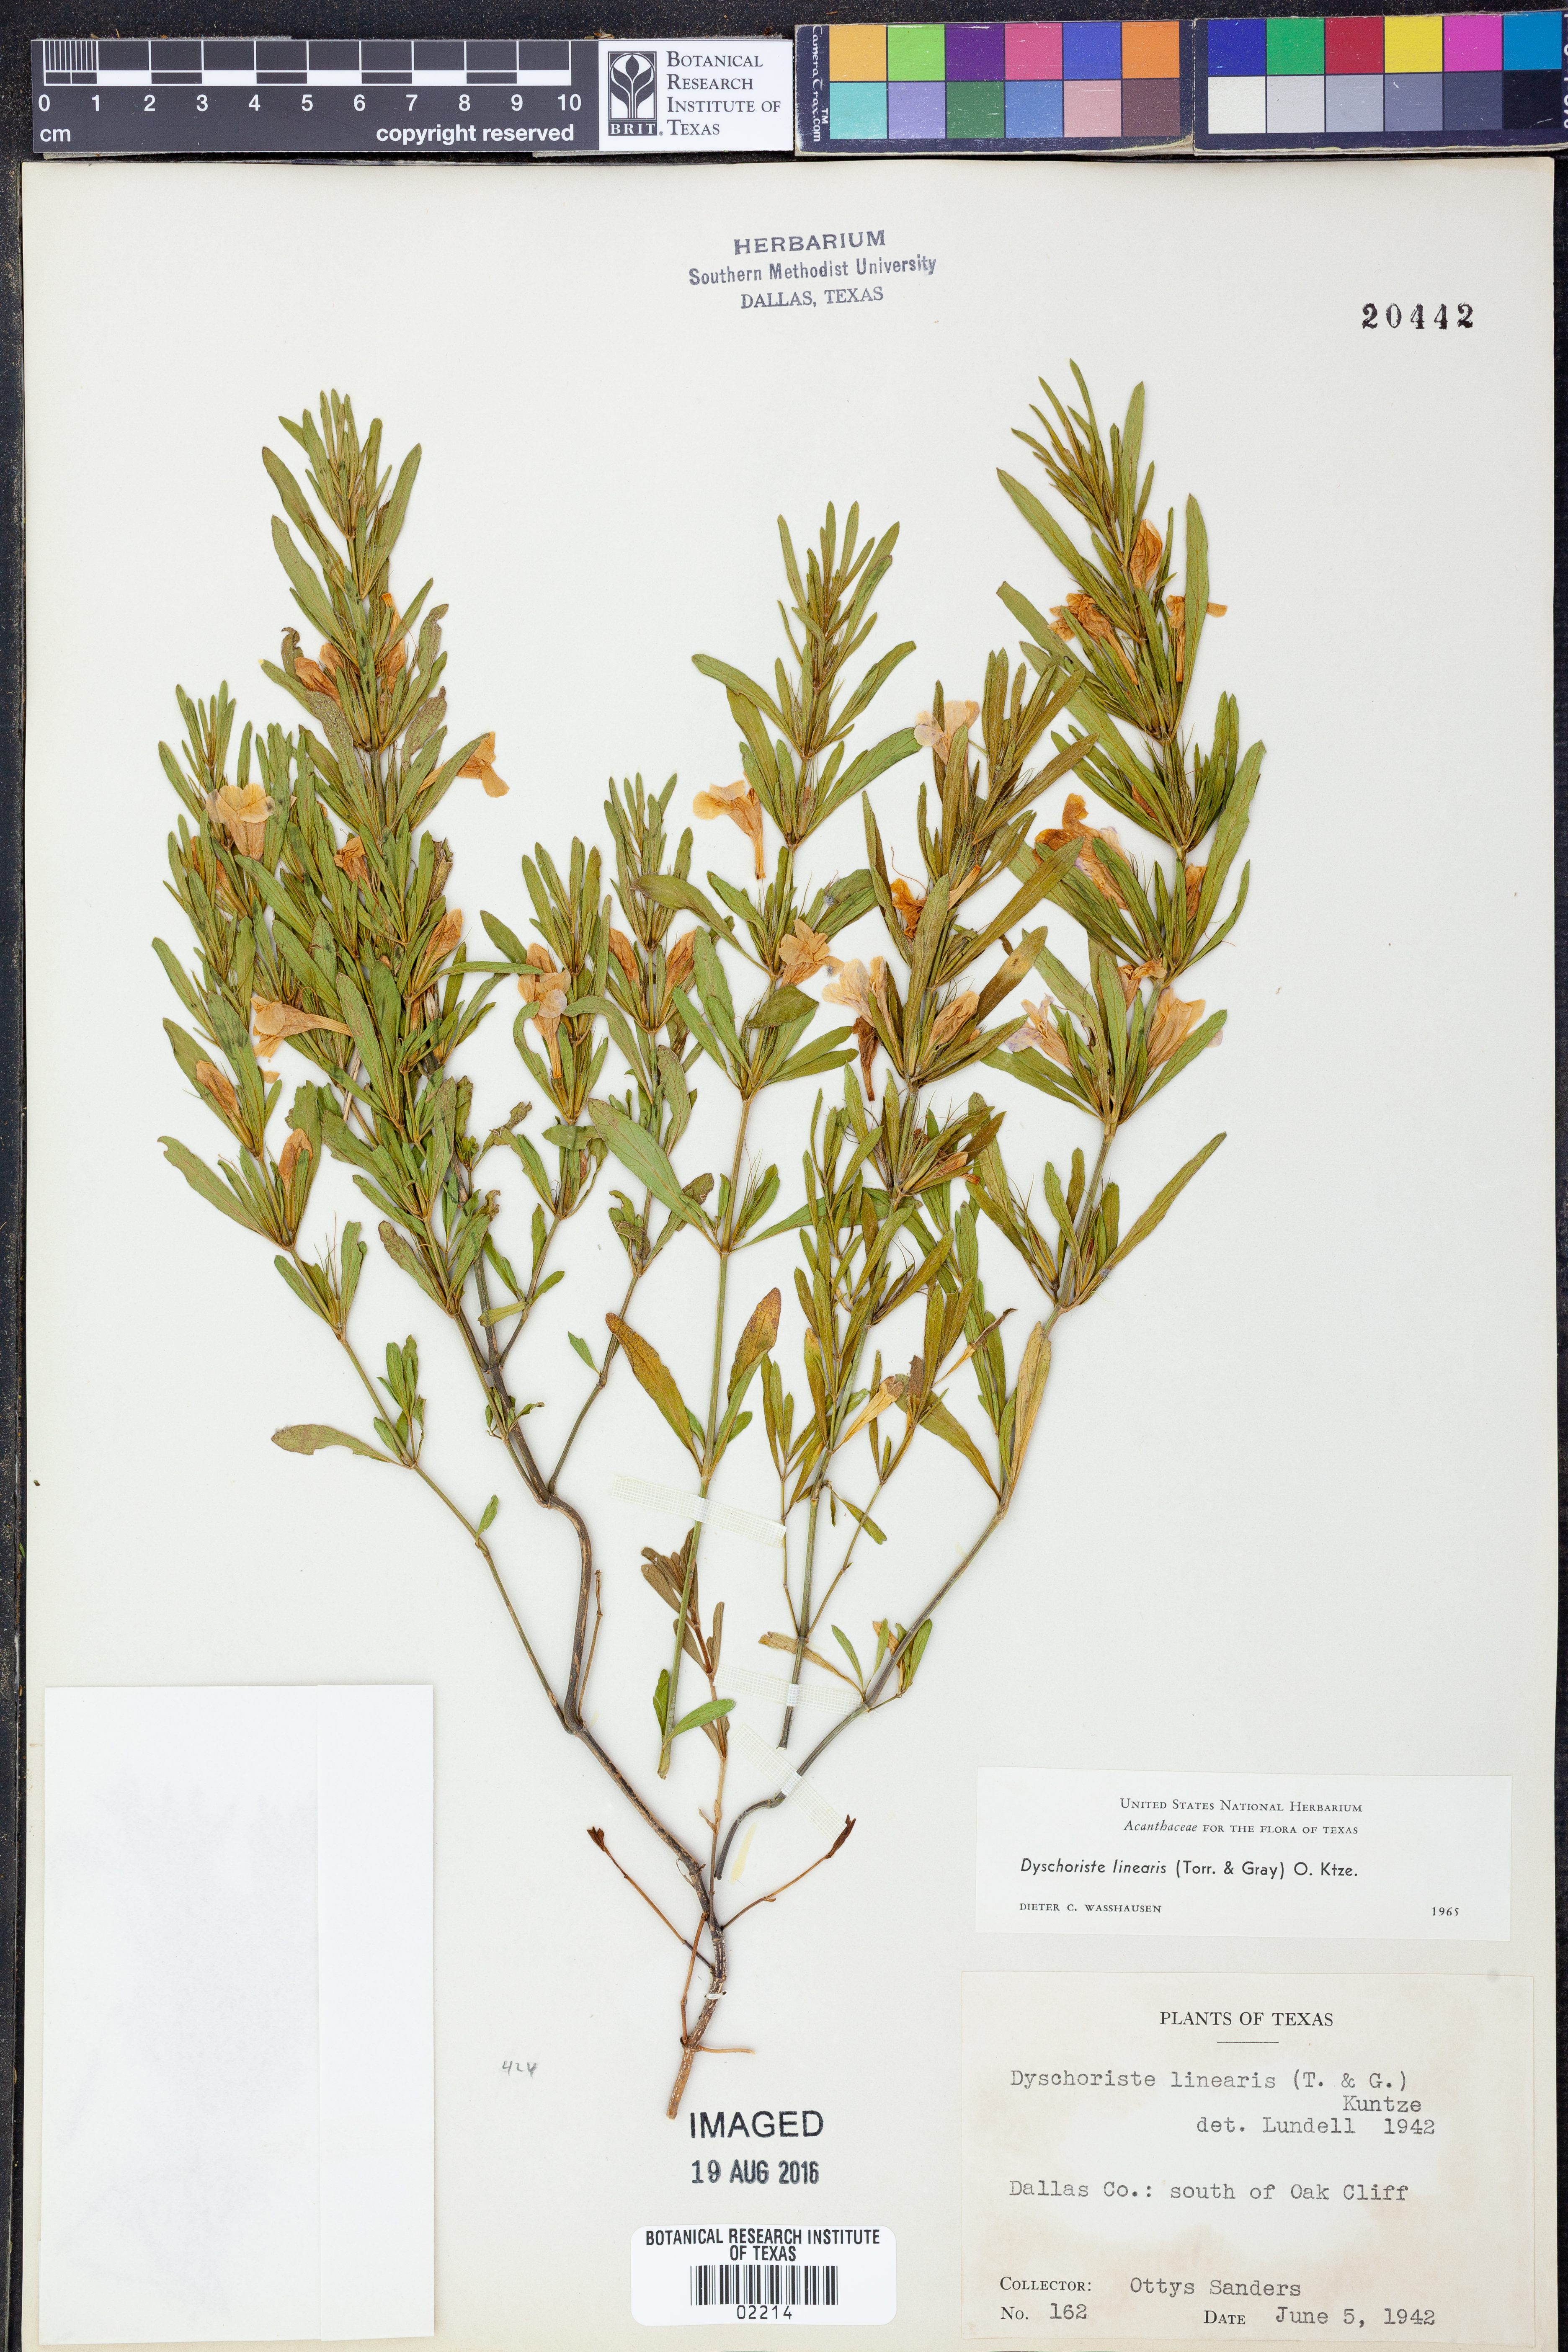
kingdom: Plantae
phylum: Tracheophyta
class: Magnoliopsida
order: Lamiales
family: Acanthaceae
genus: Dyschoriste
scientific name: Dyschoriste linearis
